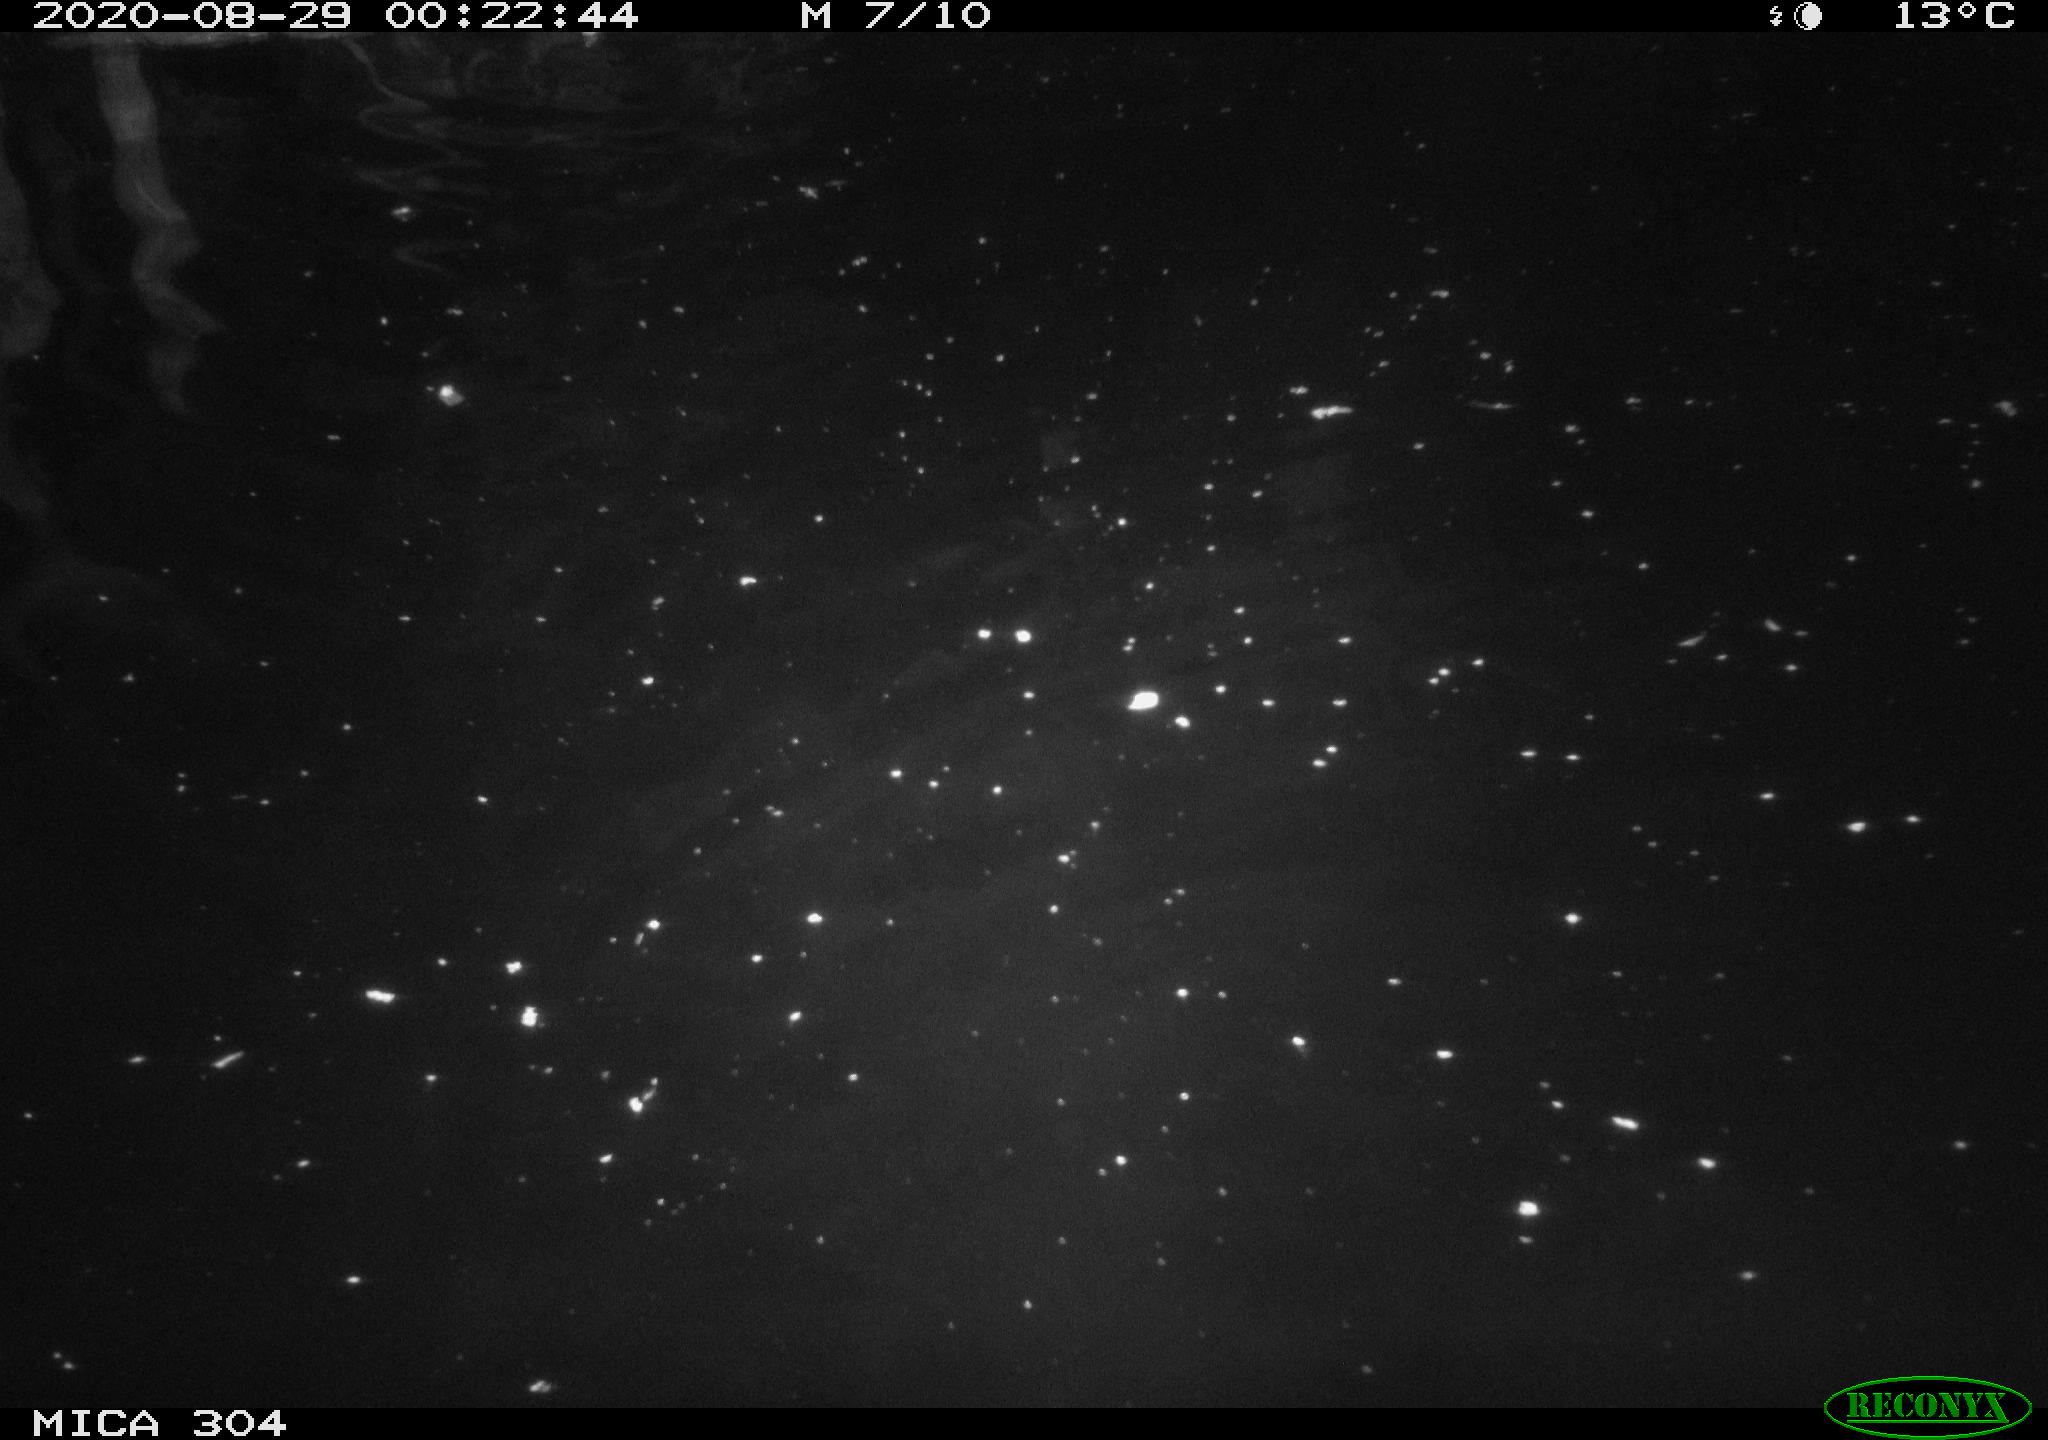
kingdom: Animalia
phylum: Chordata
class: Mammalia
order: Rodentia
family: Cricetidae
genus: Ondatra
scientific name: Ondatra zibethicus
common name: Muskrat
